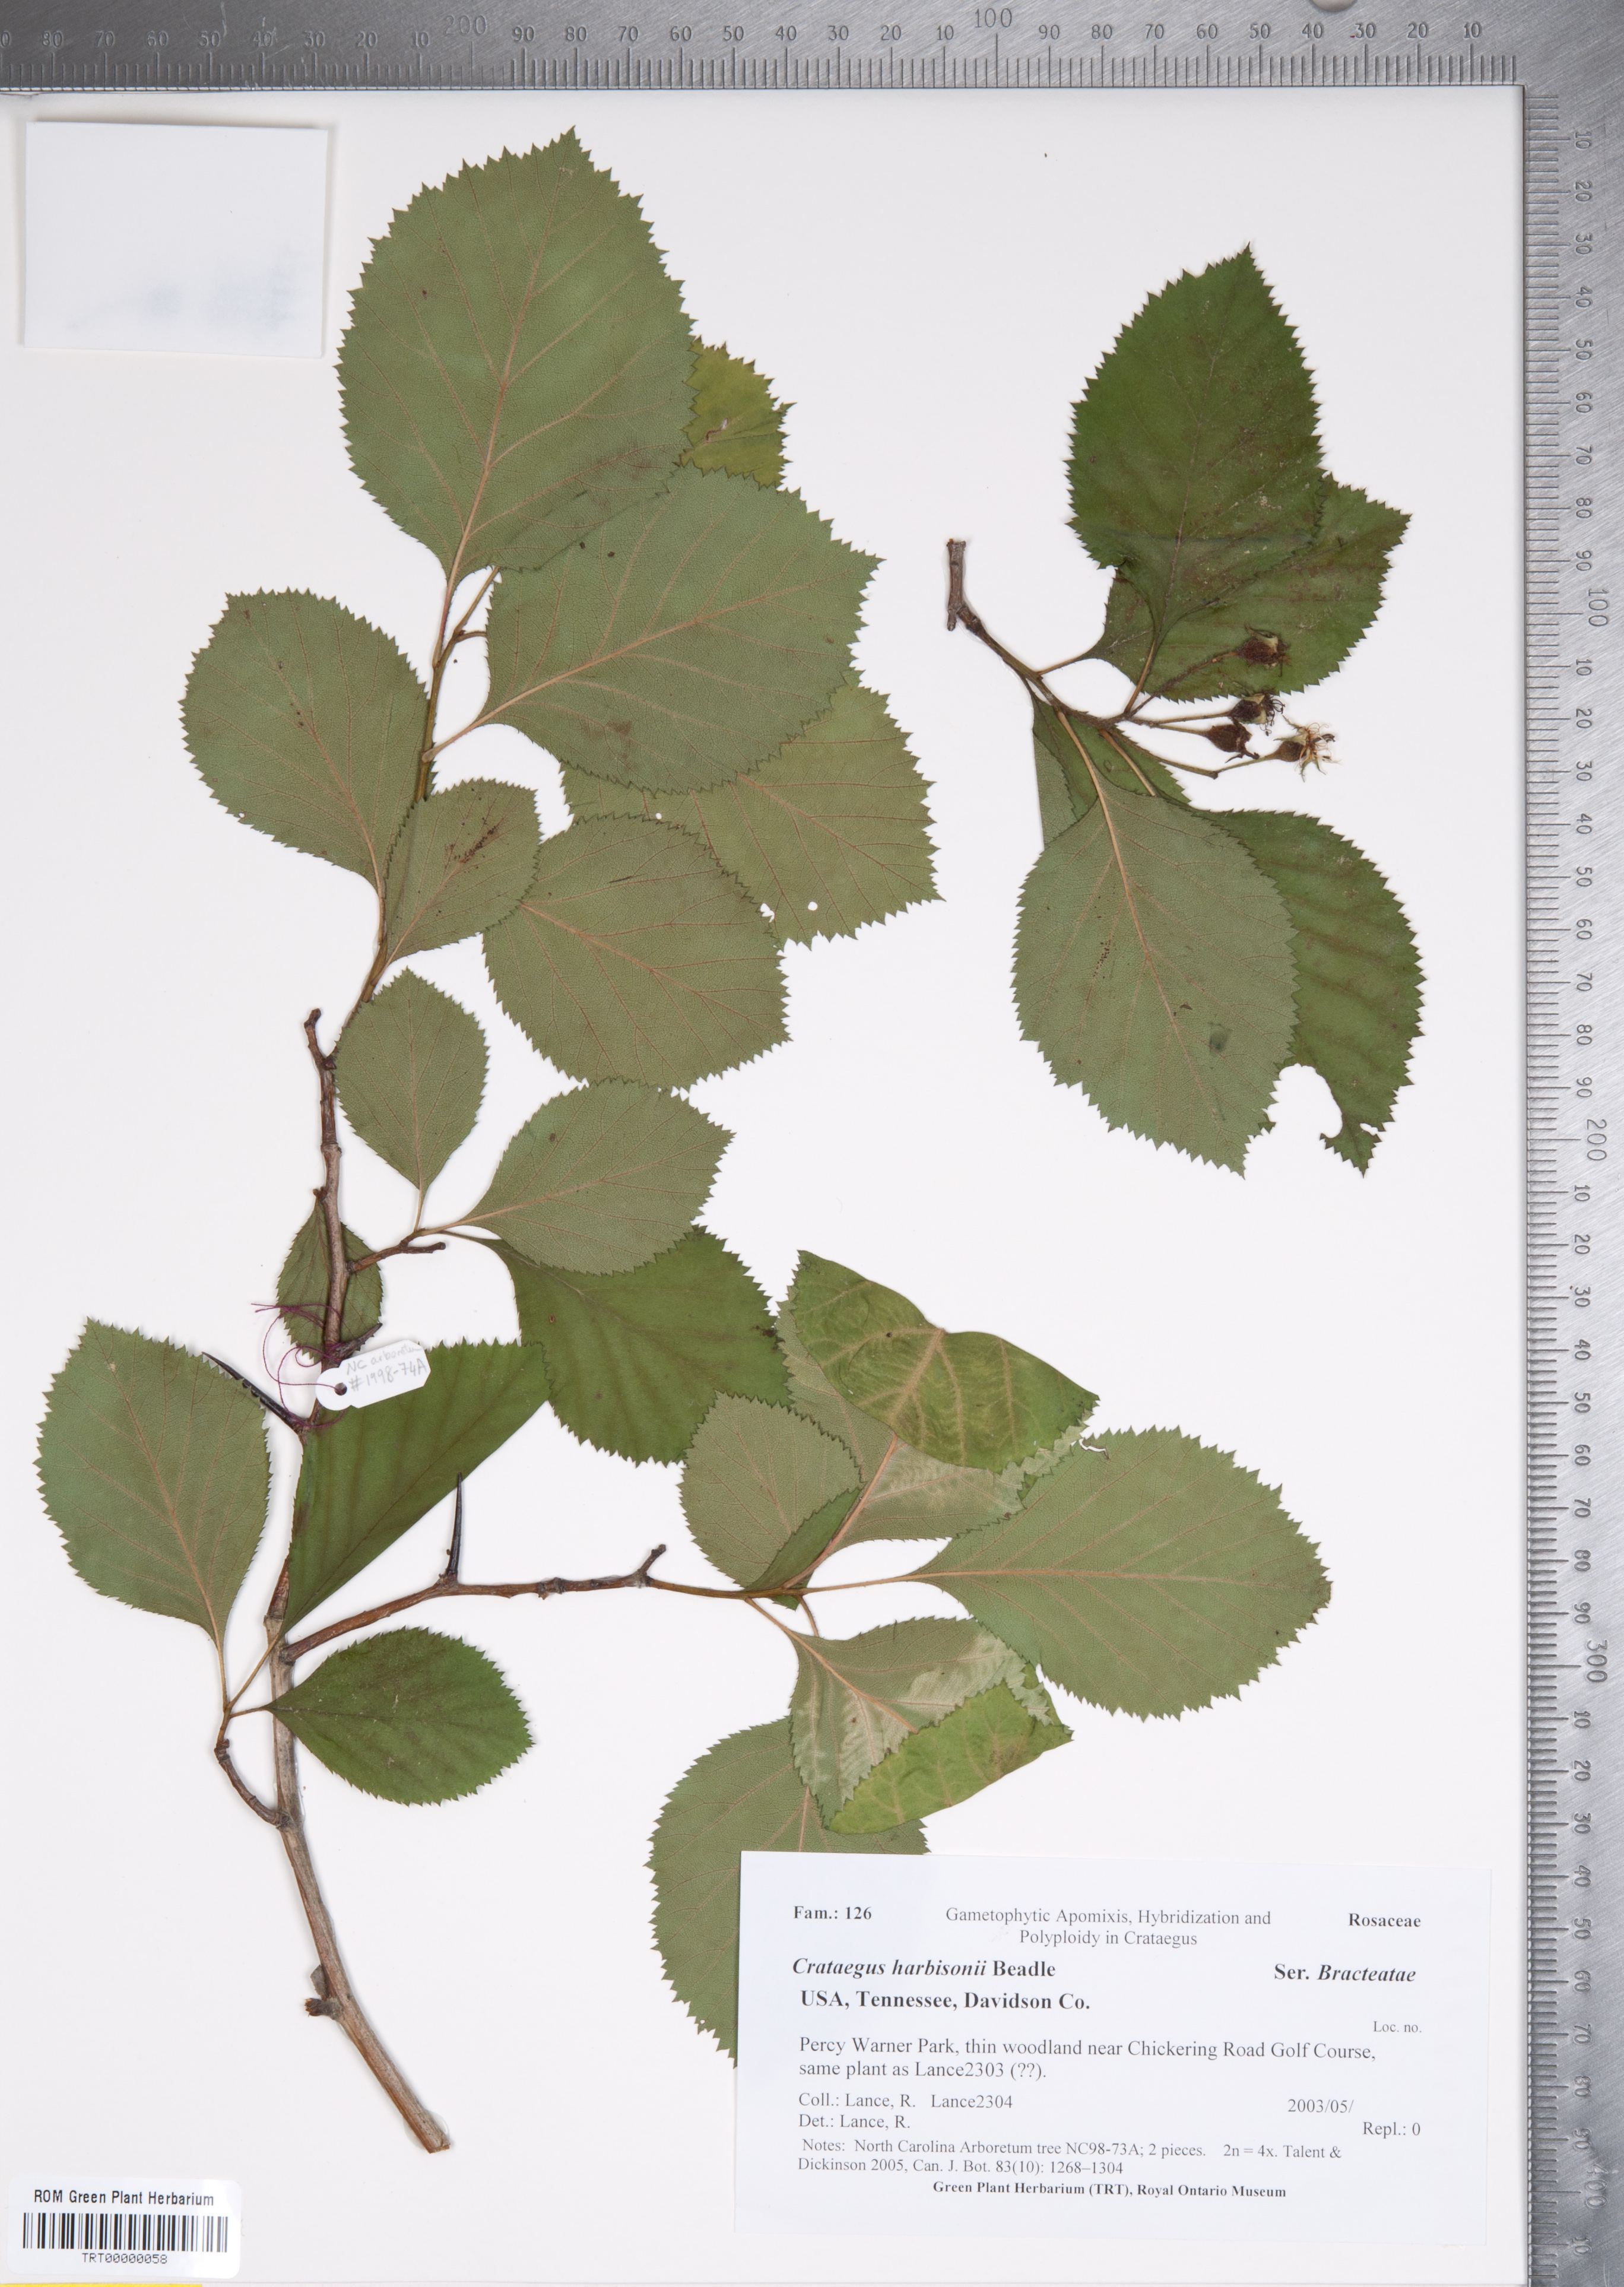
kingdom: Plantae
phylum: Tracheophyta
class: Magnoliopsida
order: Rosales
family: Rosaceae
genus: Crataegus
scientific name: Crataegus harbisonii
